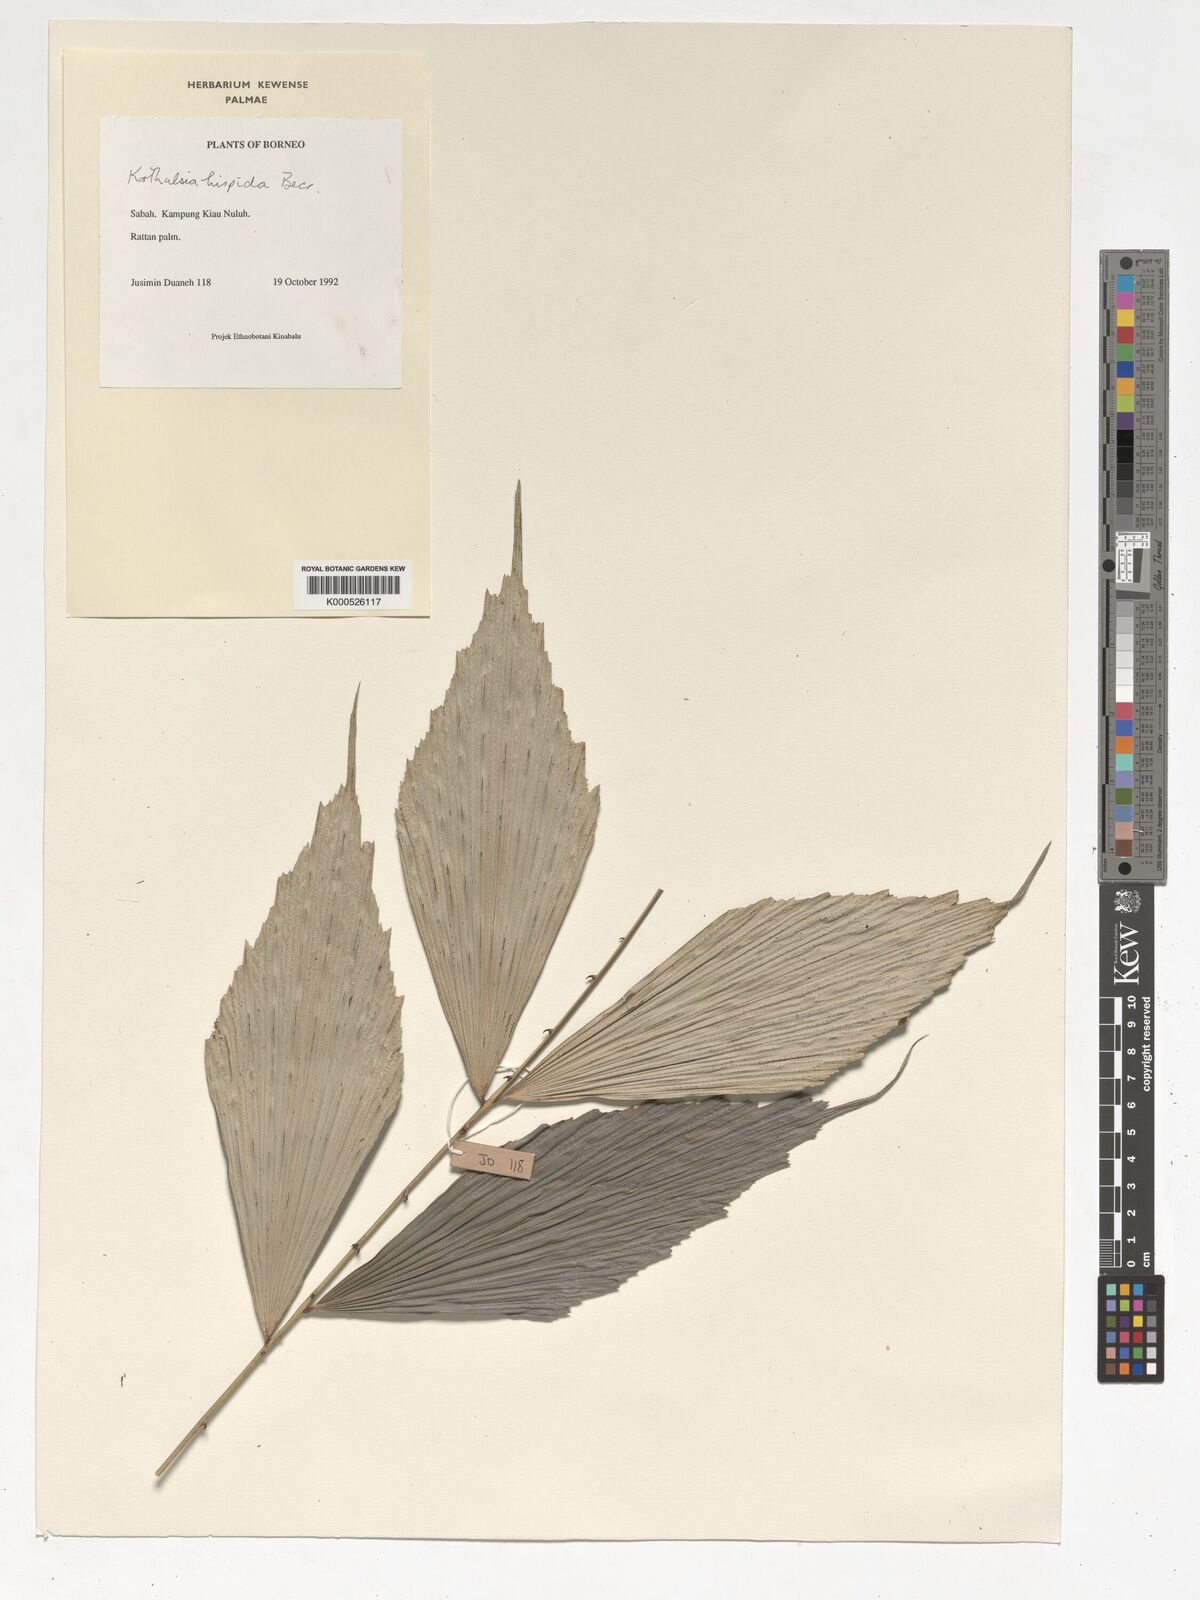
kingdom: Plantae
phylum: Tracheophyta
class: Liliopsida
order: Arecales
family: Arecaceae
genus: Korthalsia
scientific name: Korthalsia hispida
